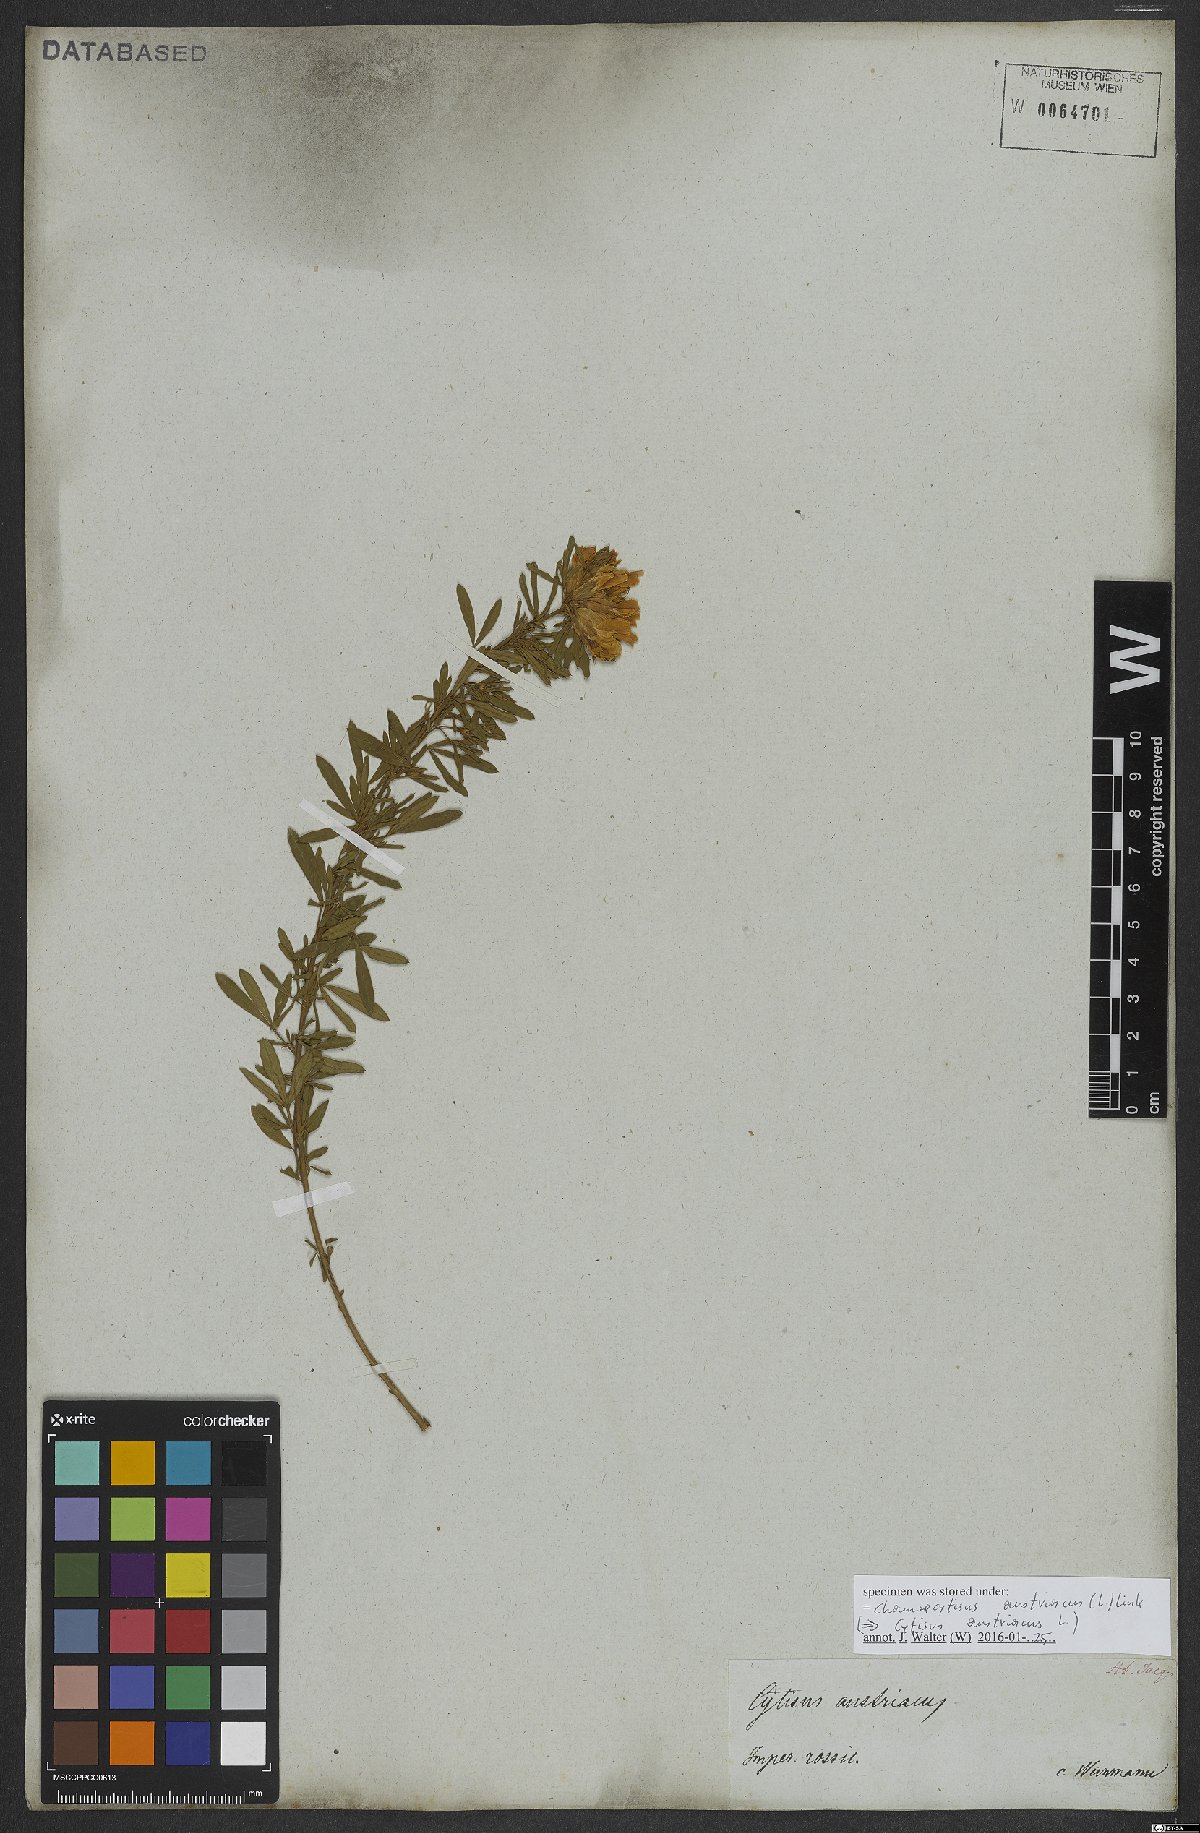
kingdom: Plantae
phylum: Tracheophyta
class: Magnoliopsida
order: Fabales
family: Fabaceae
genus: Chamaecytisus
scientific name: Chamaecytisus austriacus
